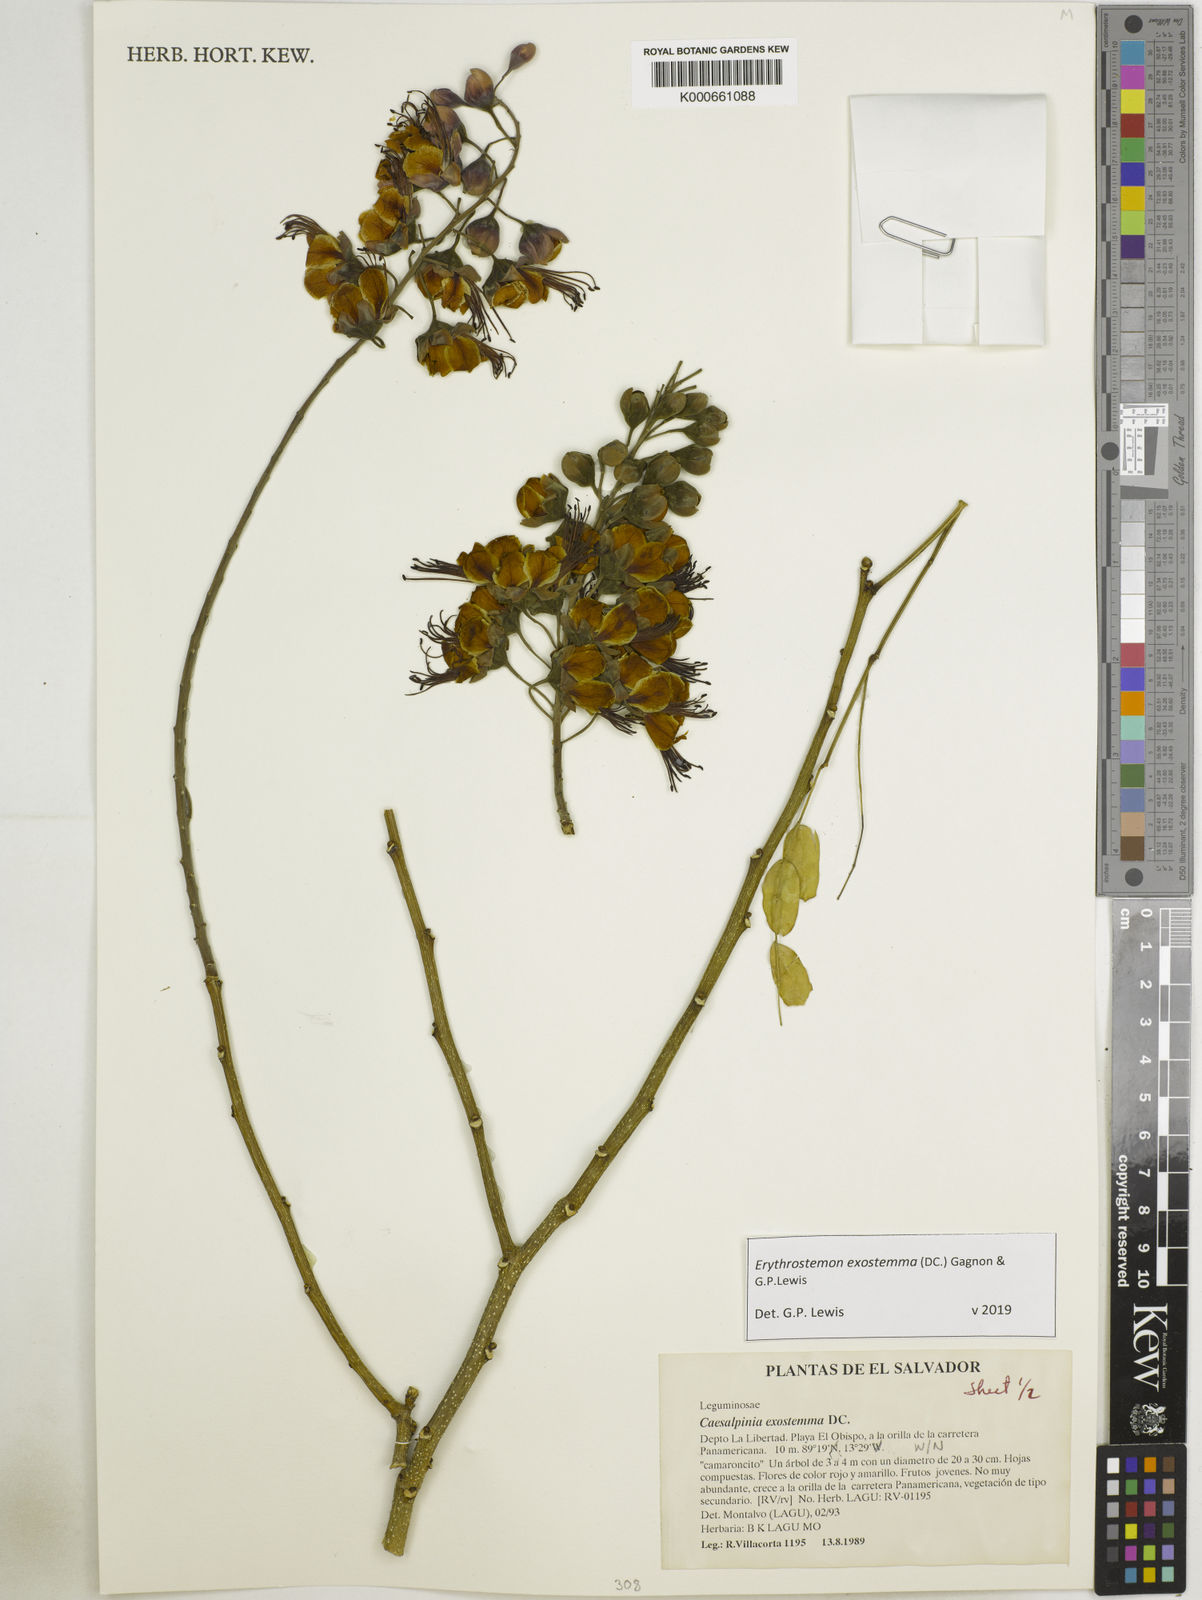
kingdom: Plantae
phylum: Tracheophyta
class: Magnoliopsida
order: Fabales
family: Fabaceae
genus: Erythrostemon
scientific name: Erythrostemon exostemma
